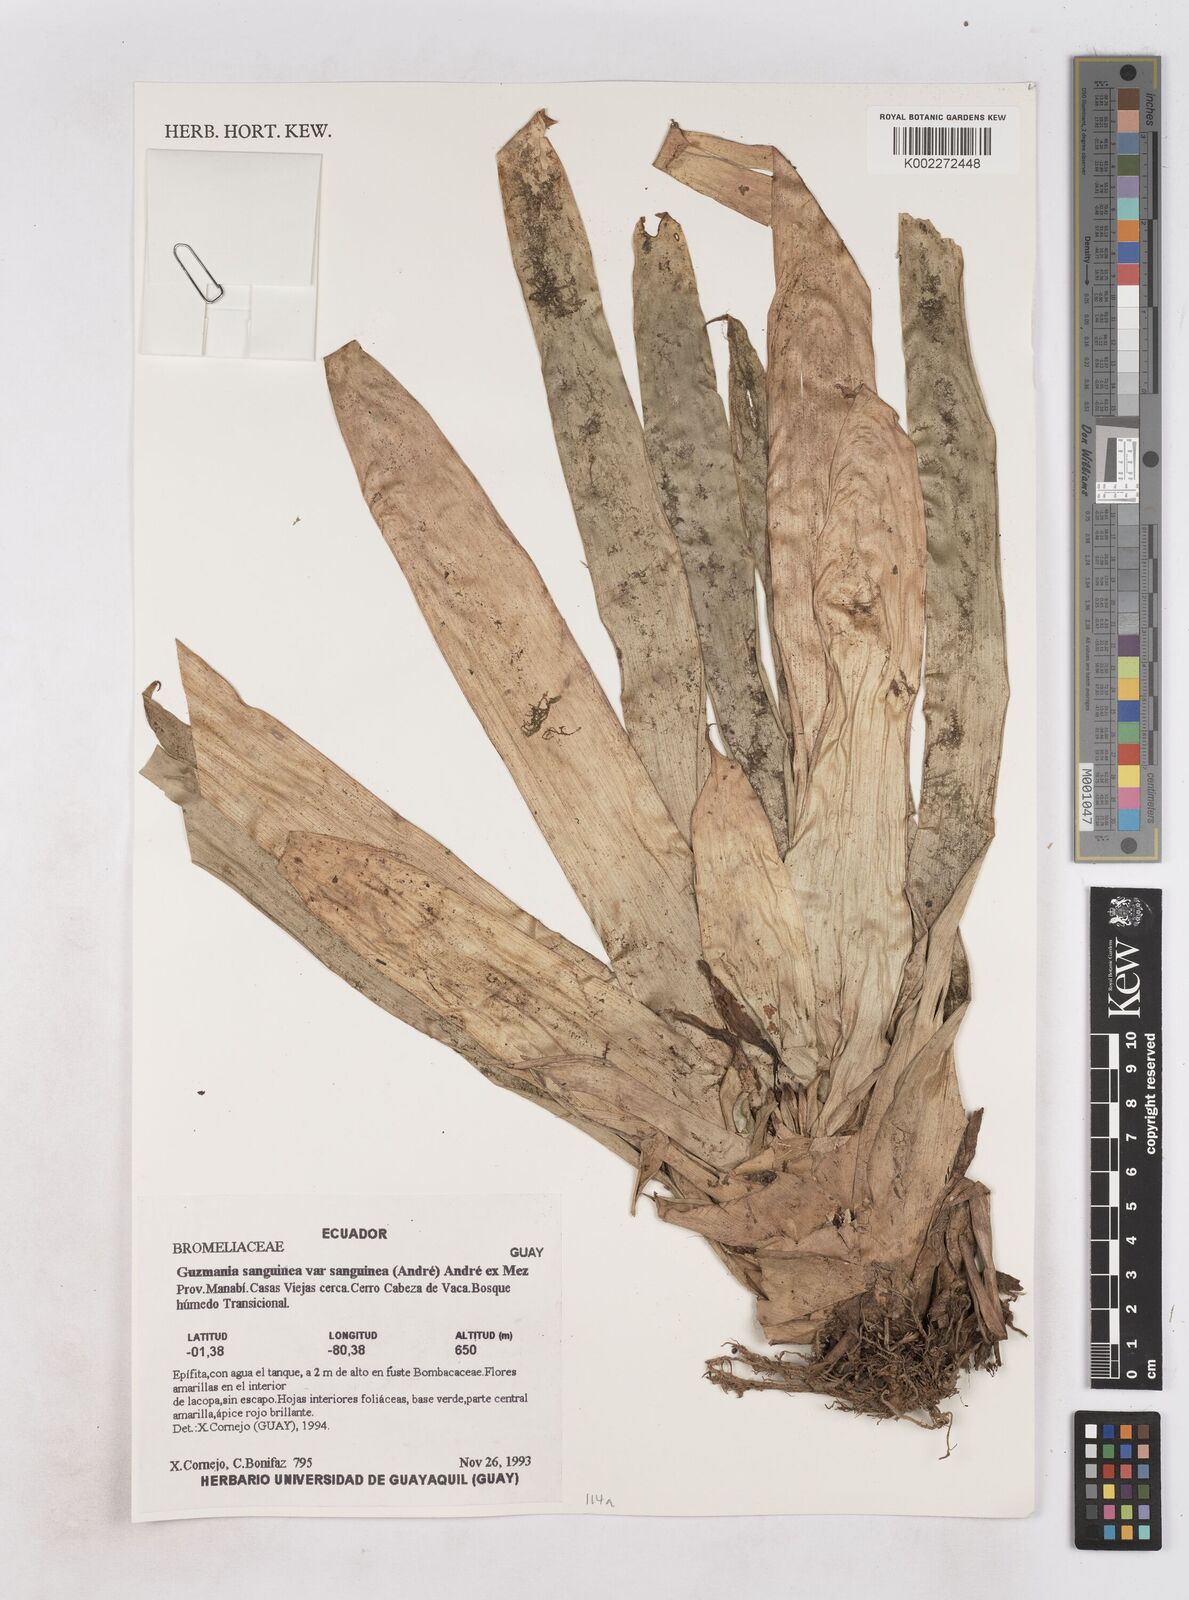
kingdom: Plantae
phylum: Tracheophyta
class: Liliopsida
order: Poales
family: Bromeliaceae
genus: Guzmania
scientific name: Guzmania sanguinea
